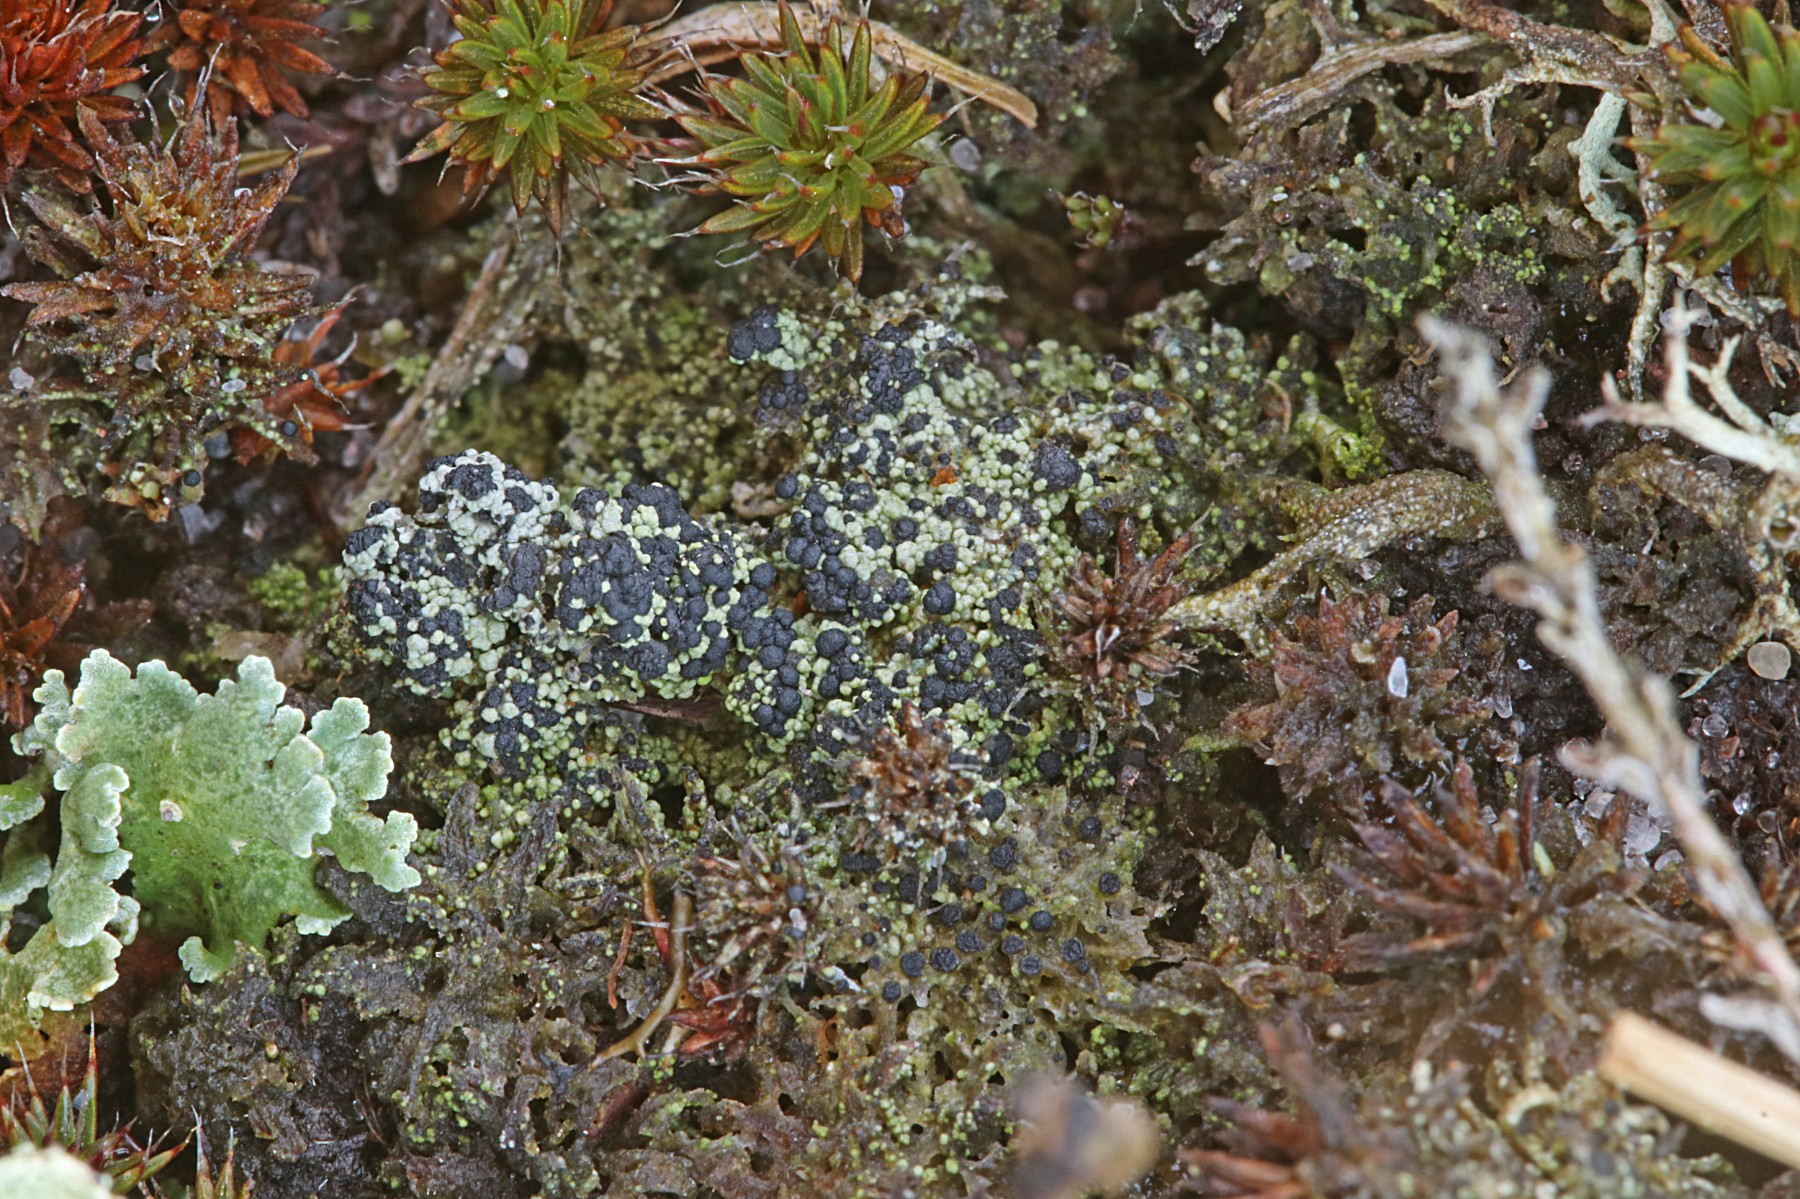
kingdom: Fungi
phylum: Ascomycota
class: Lecanoromycetes
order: Lecanorales
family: Byssolomataceae
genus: Micarea
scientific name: Micarea lignaria
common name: tørve-knaplav
